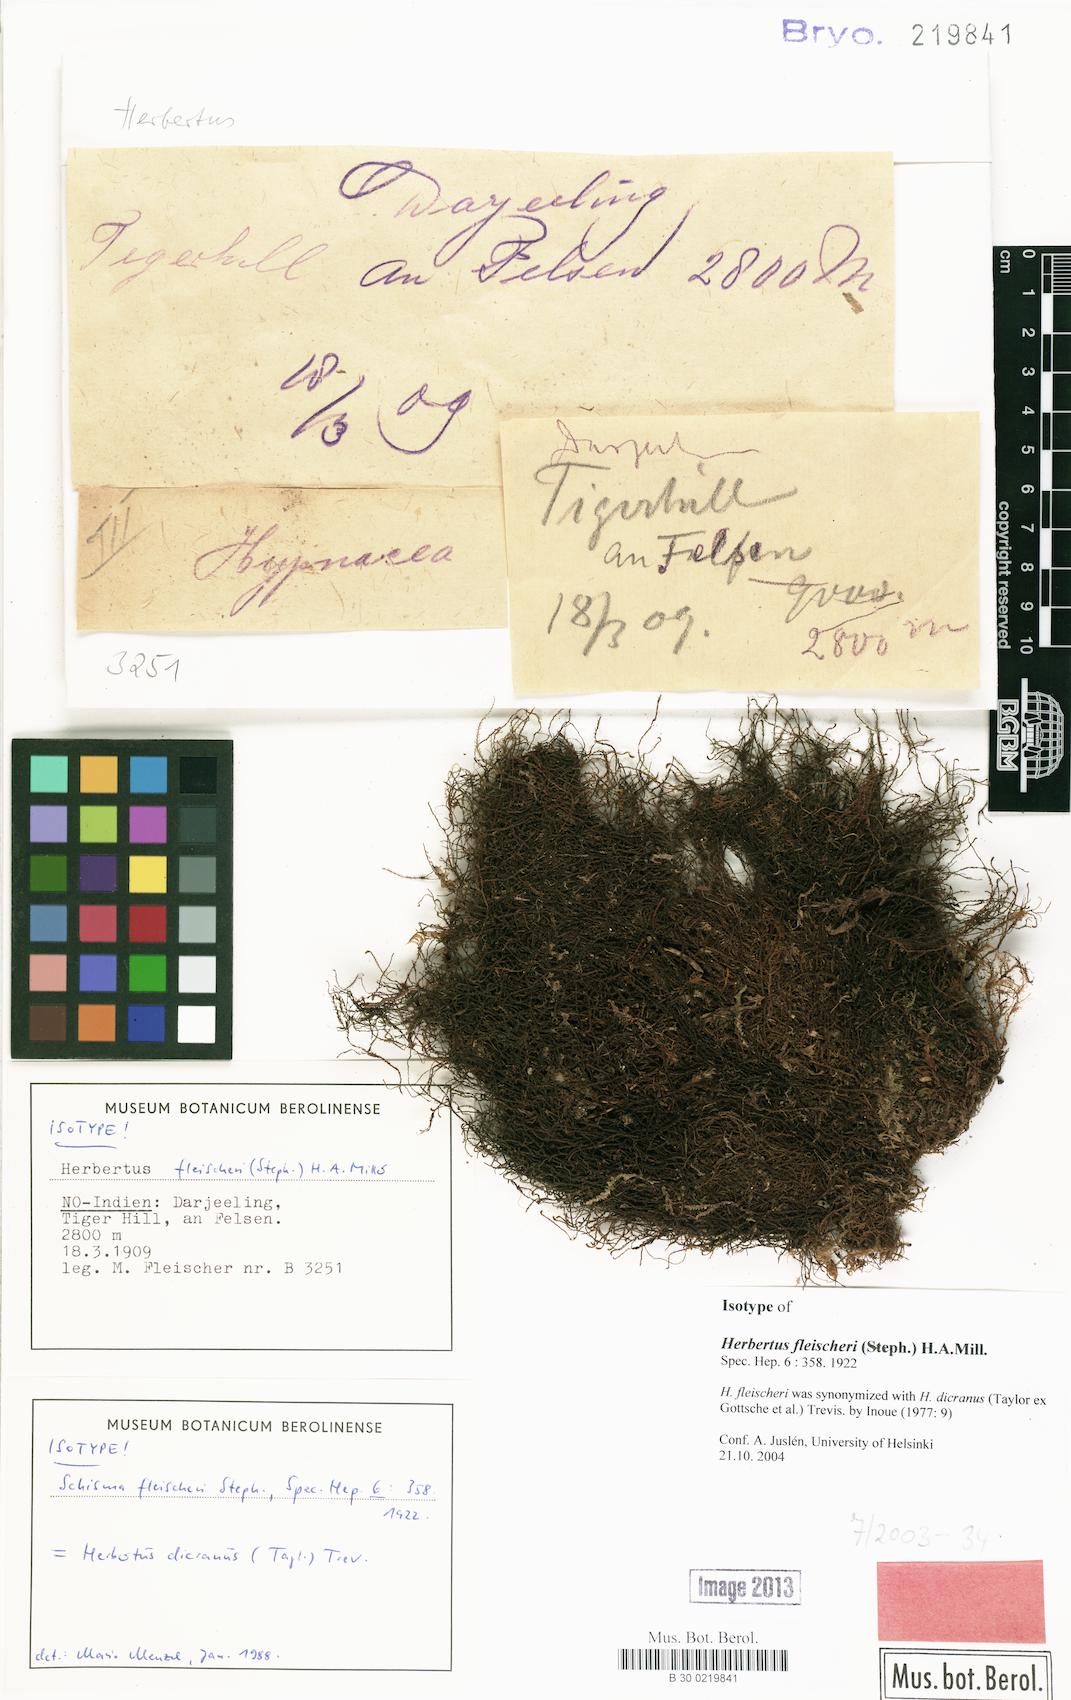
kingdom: Plantae
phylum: Marchantiophyta
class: Jungermanniopsida
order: Jungermanniales
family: Herbertaceae
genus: Herbertus
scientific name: Herbertus dicranus
